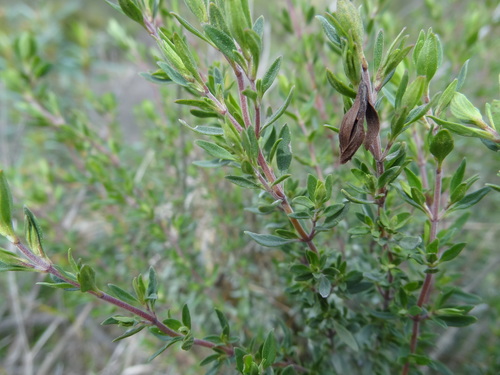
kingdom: Plantae
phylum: Tracheophyta
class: Magnoliopsida
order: Lamiales
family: Lamiaceae
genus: Thymus
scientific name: Thymus mastichina
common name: Mastic thyme
